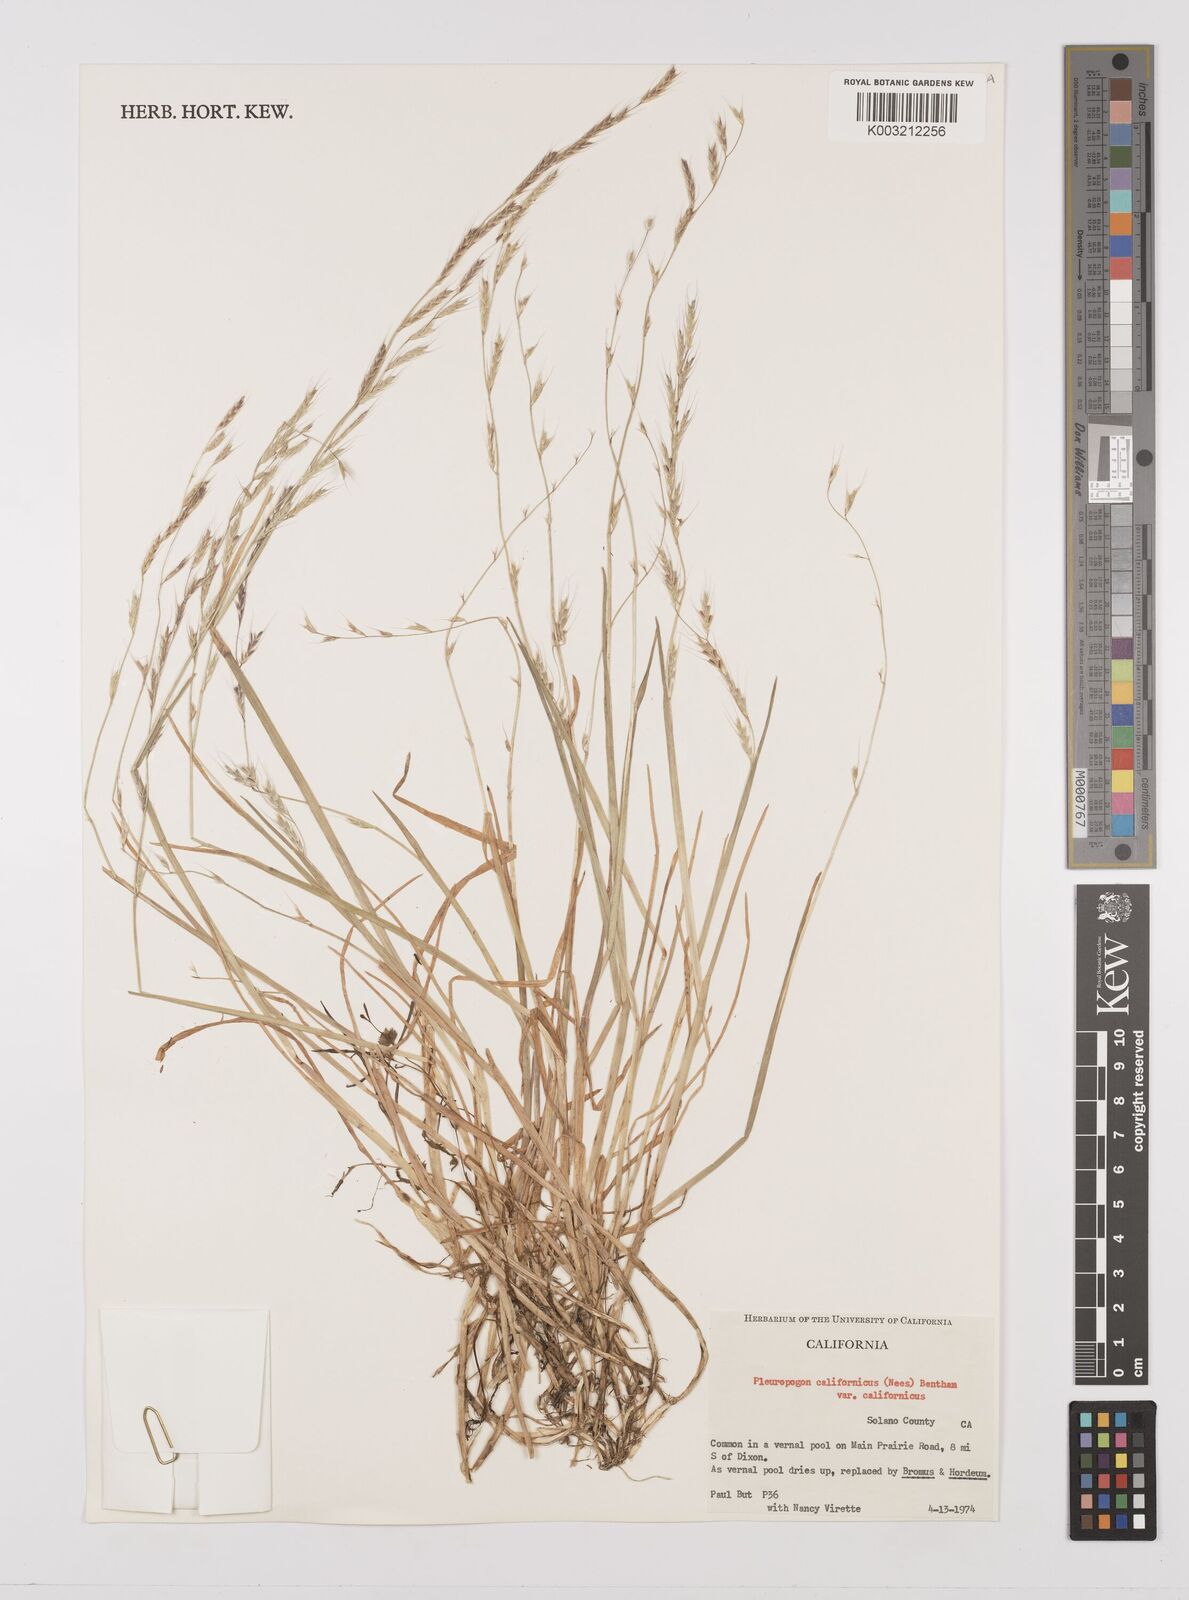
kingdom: Plantae
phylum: Tracheophyta
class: Liliopsida
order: Poales
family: Poaceae
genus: Pleuropogon
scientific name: Pleuropogon californicus
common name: California semaphore grass
